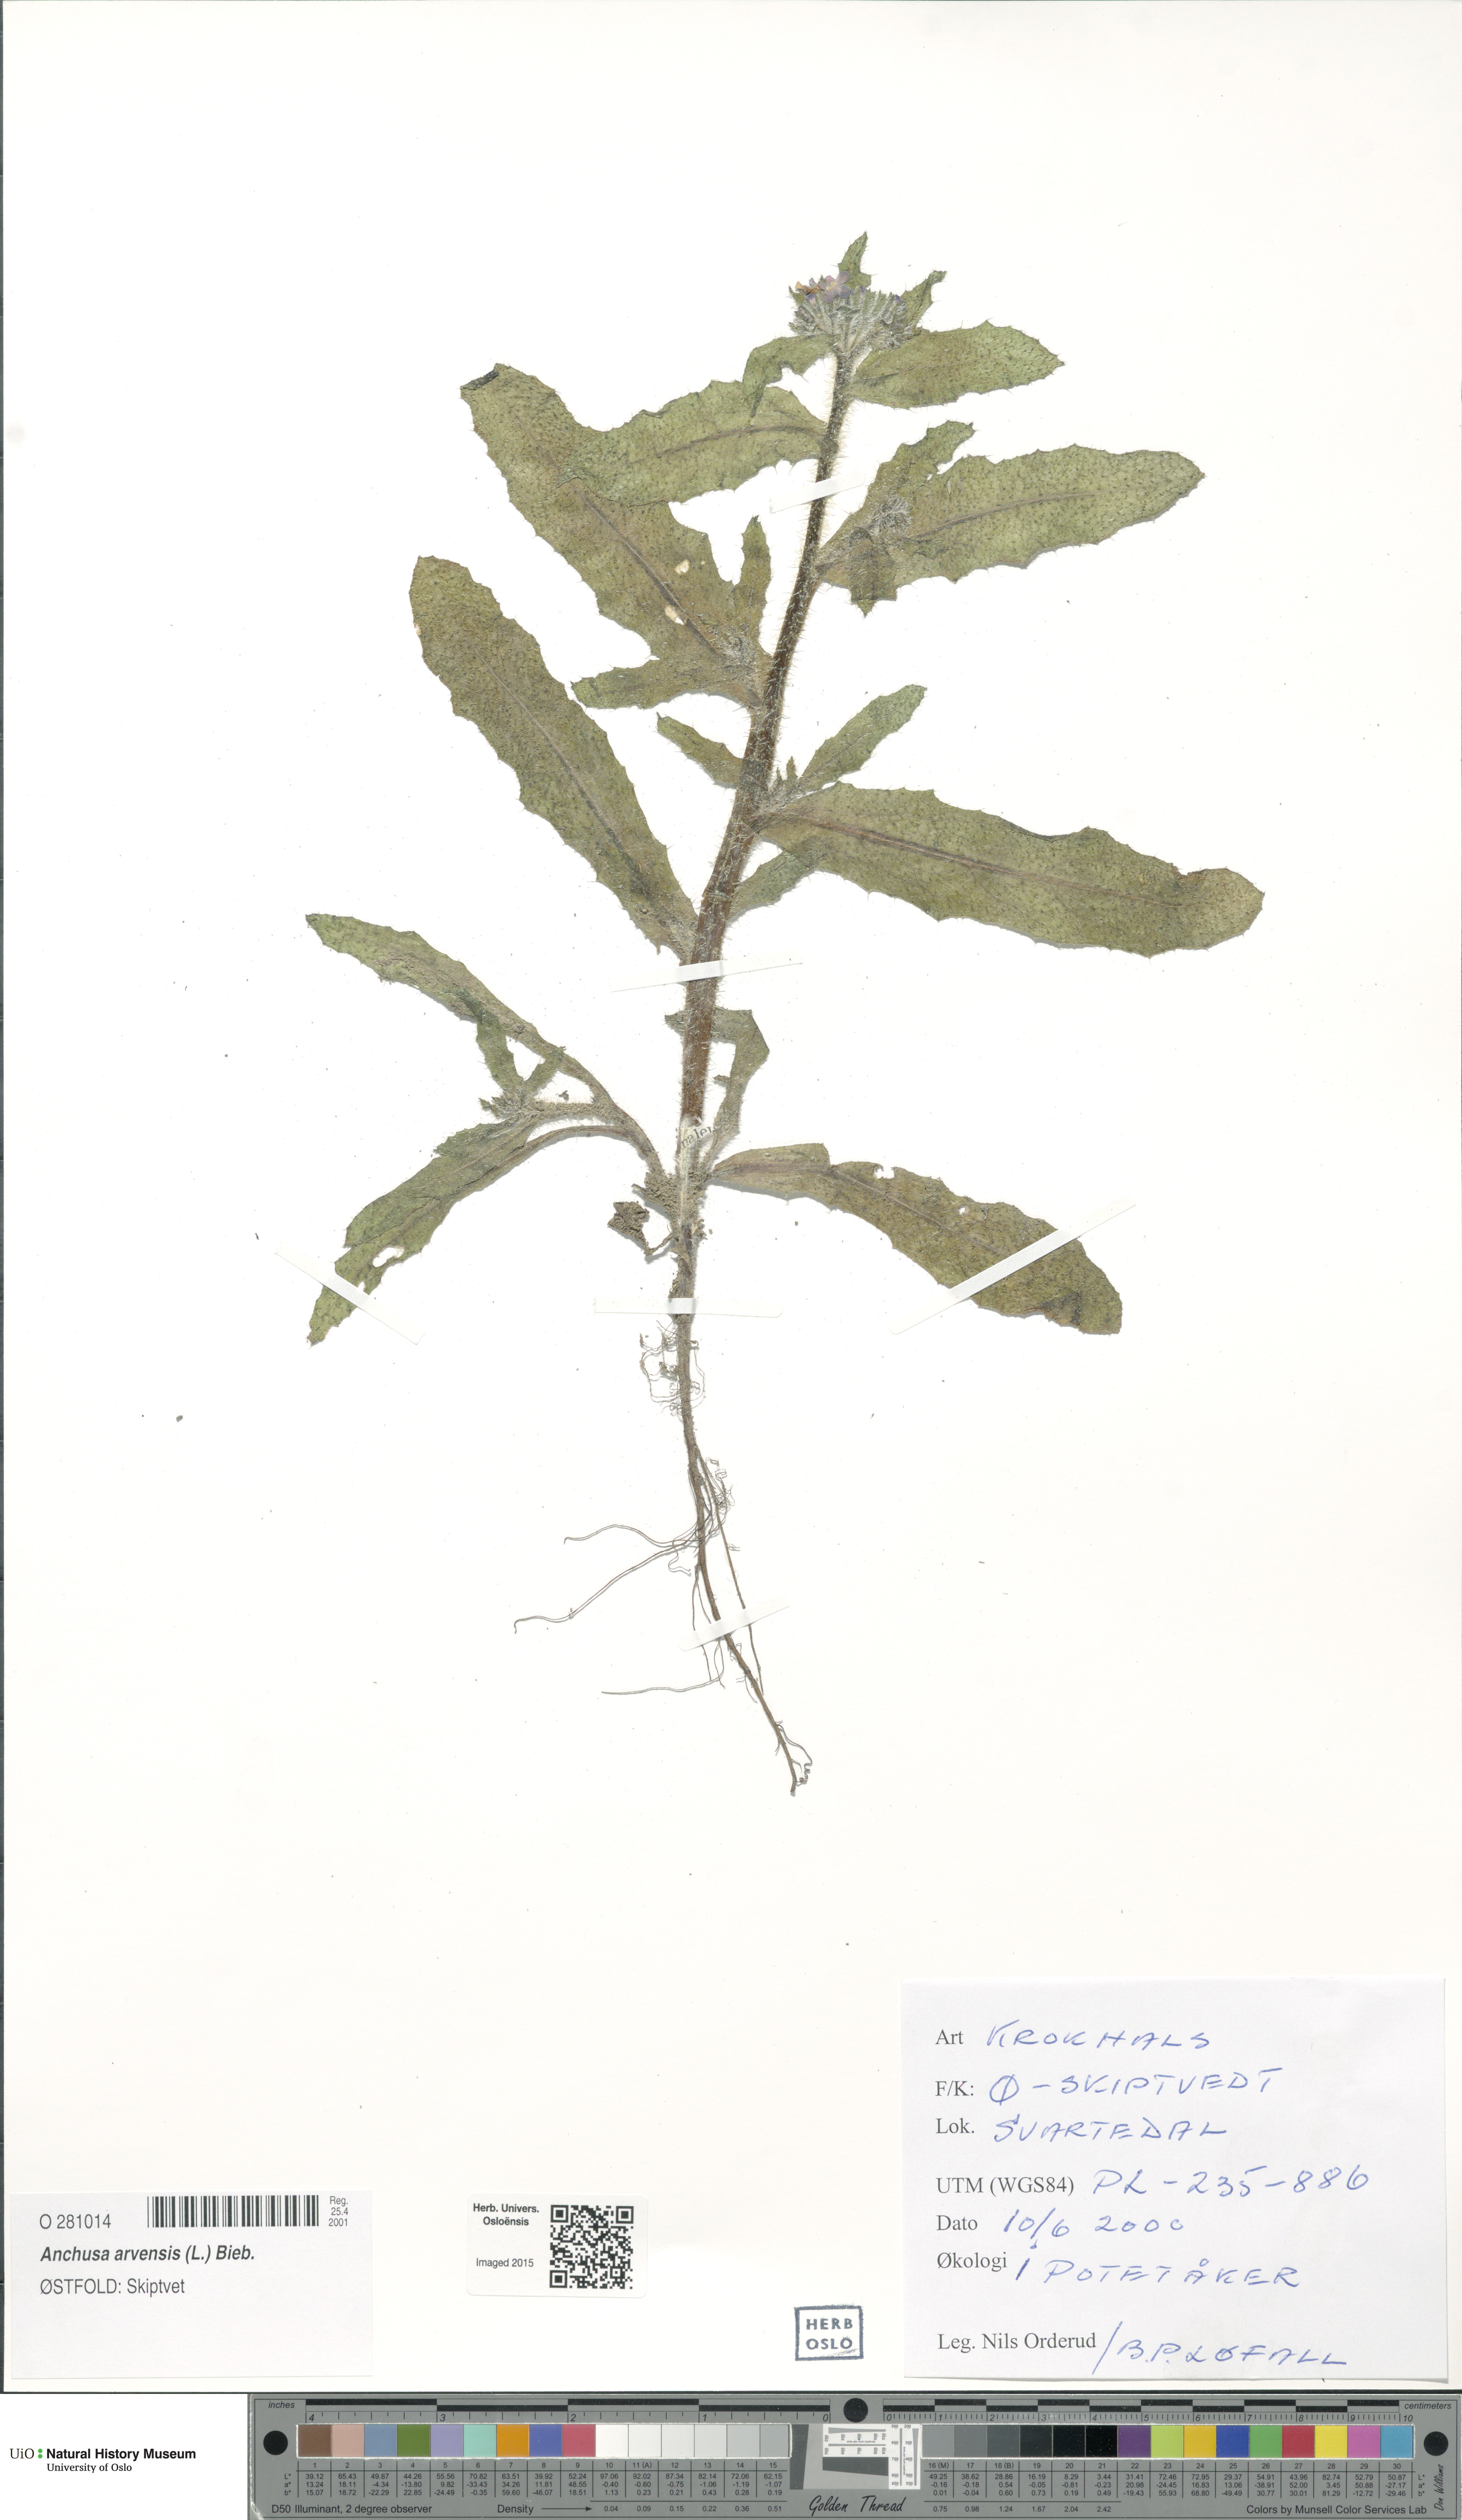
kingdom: Plantae
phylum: Tracheophyta
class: Magnoliopsida
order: Boraginales
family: Boraginaceae
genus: Lycopsis
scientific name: Lycopsis arvensis
